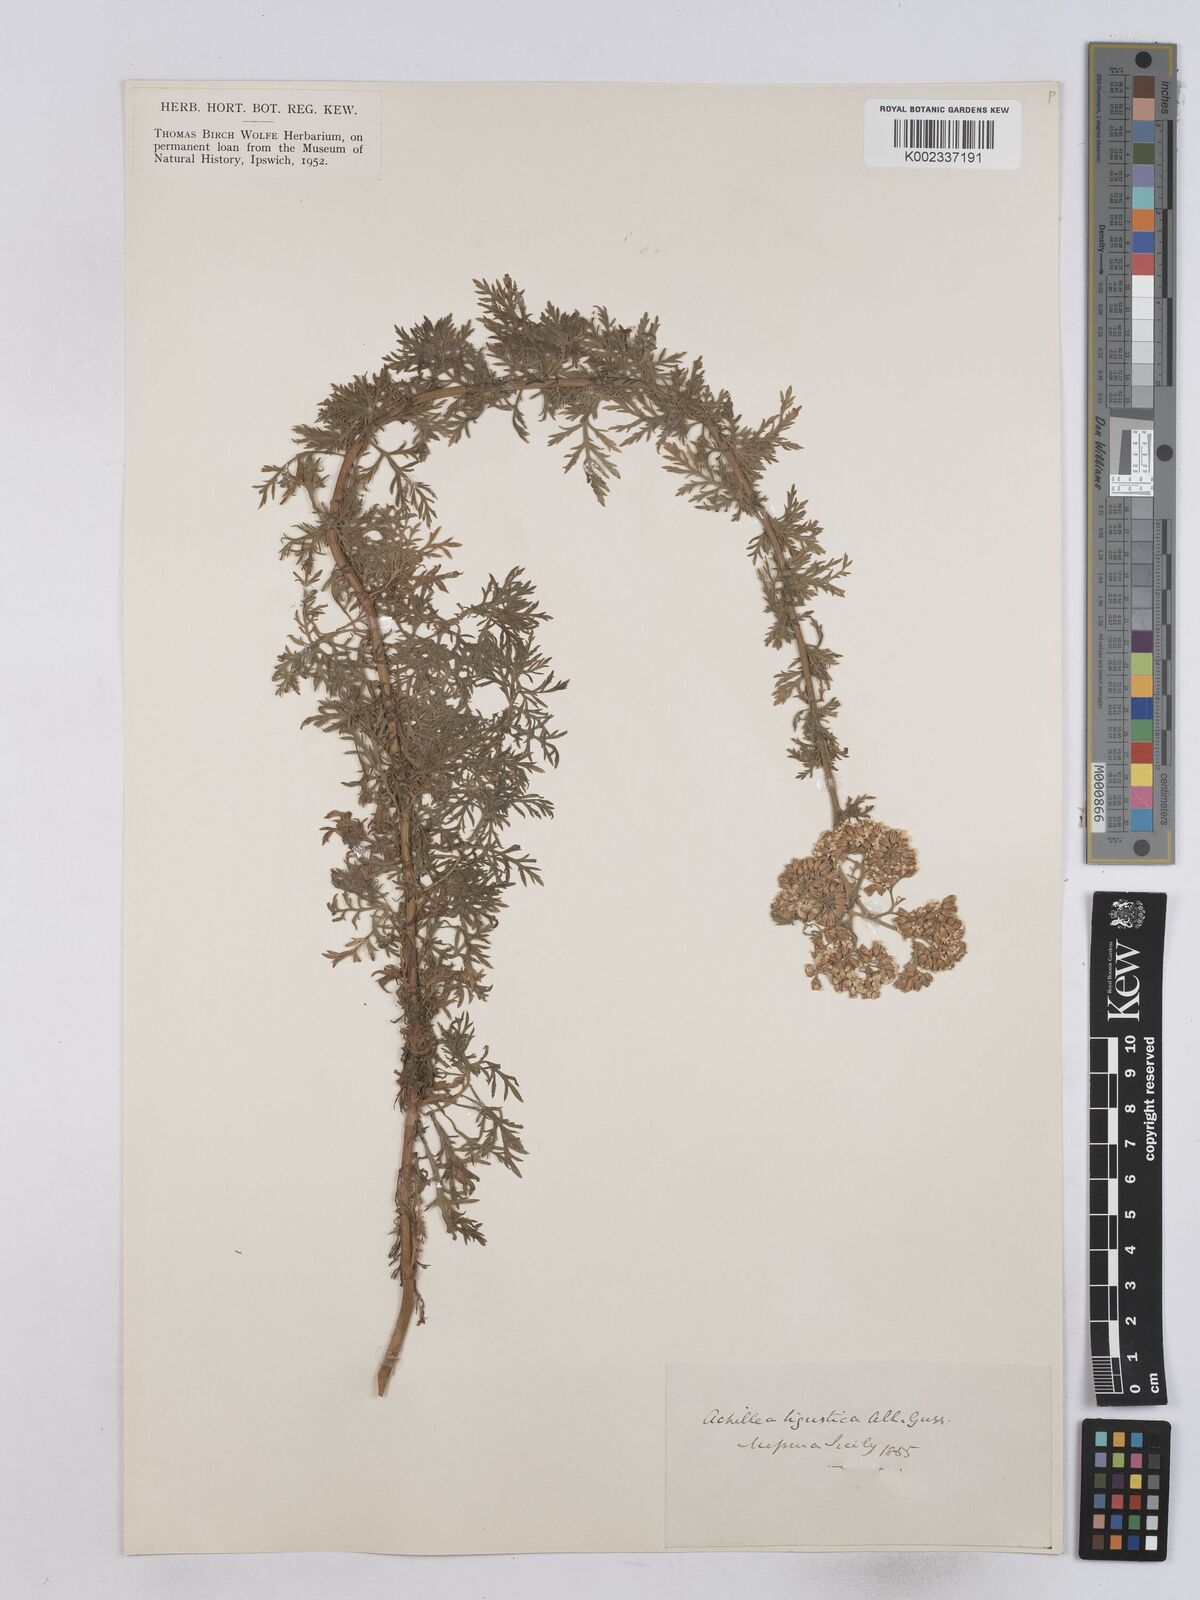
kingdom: Plantae
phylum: Tracheophyta
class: Magnoliopsida
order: Asterales
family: Asteraceae
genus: Achillea
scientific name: Achillea ligustica
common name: Southern yarrow
